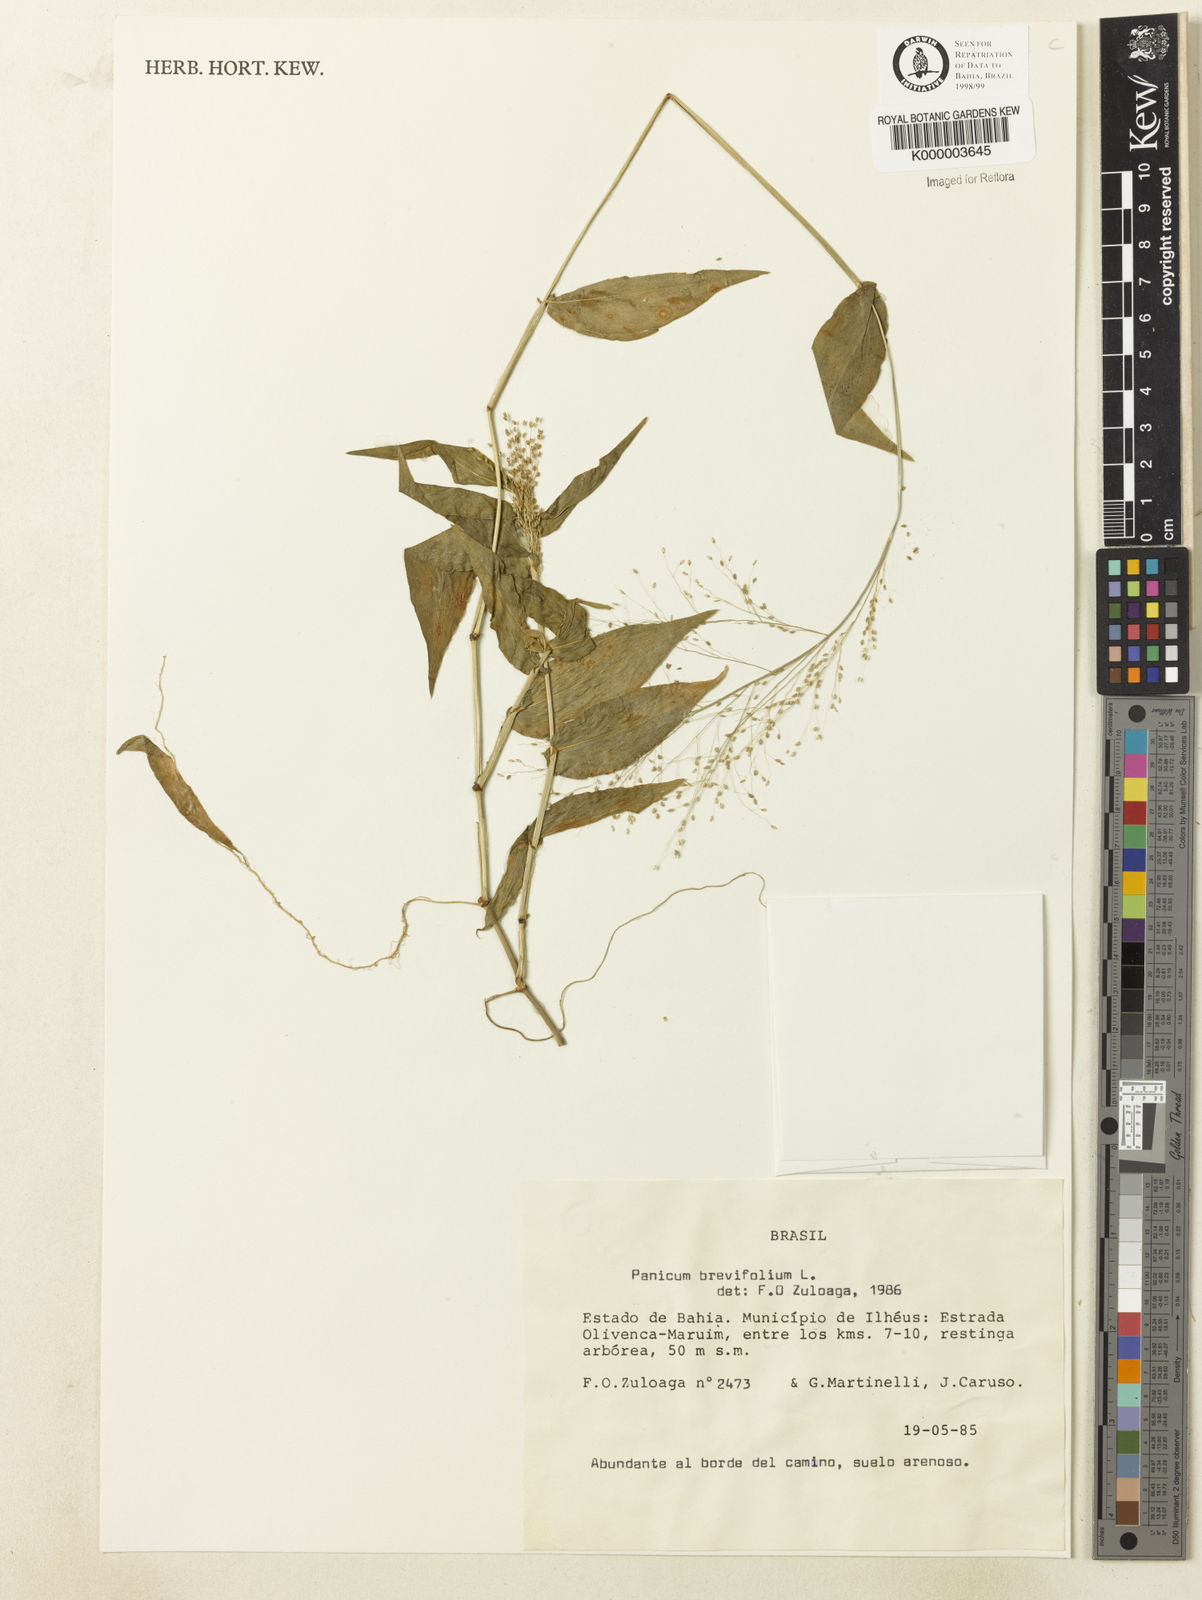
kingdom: Plantae
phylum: Tracheophyta
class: Liliopsida
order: Poales
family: Poaceae
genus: Panicum
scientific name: Panicum brevifolium
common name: Shortleaf panic grass
